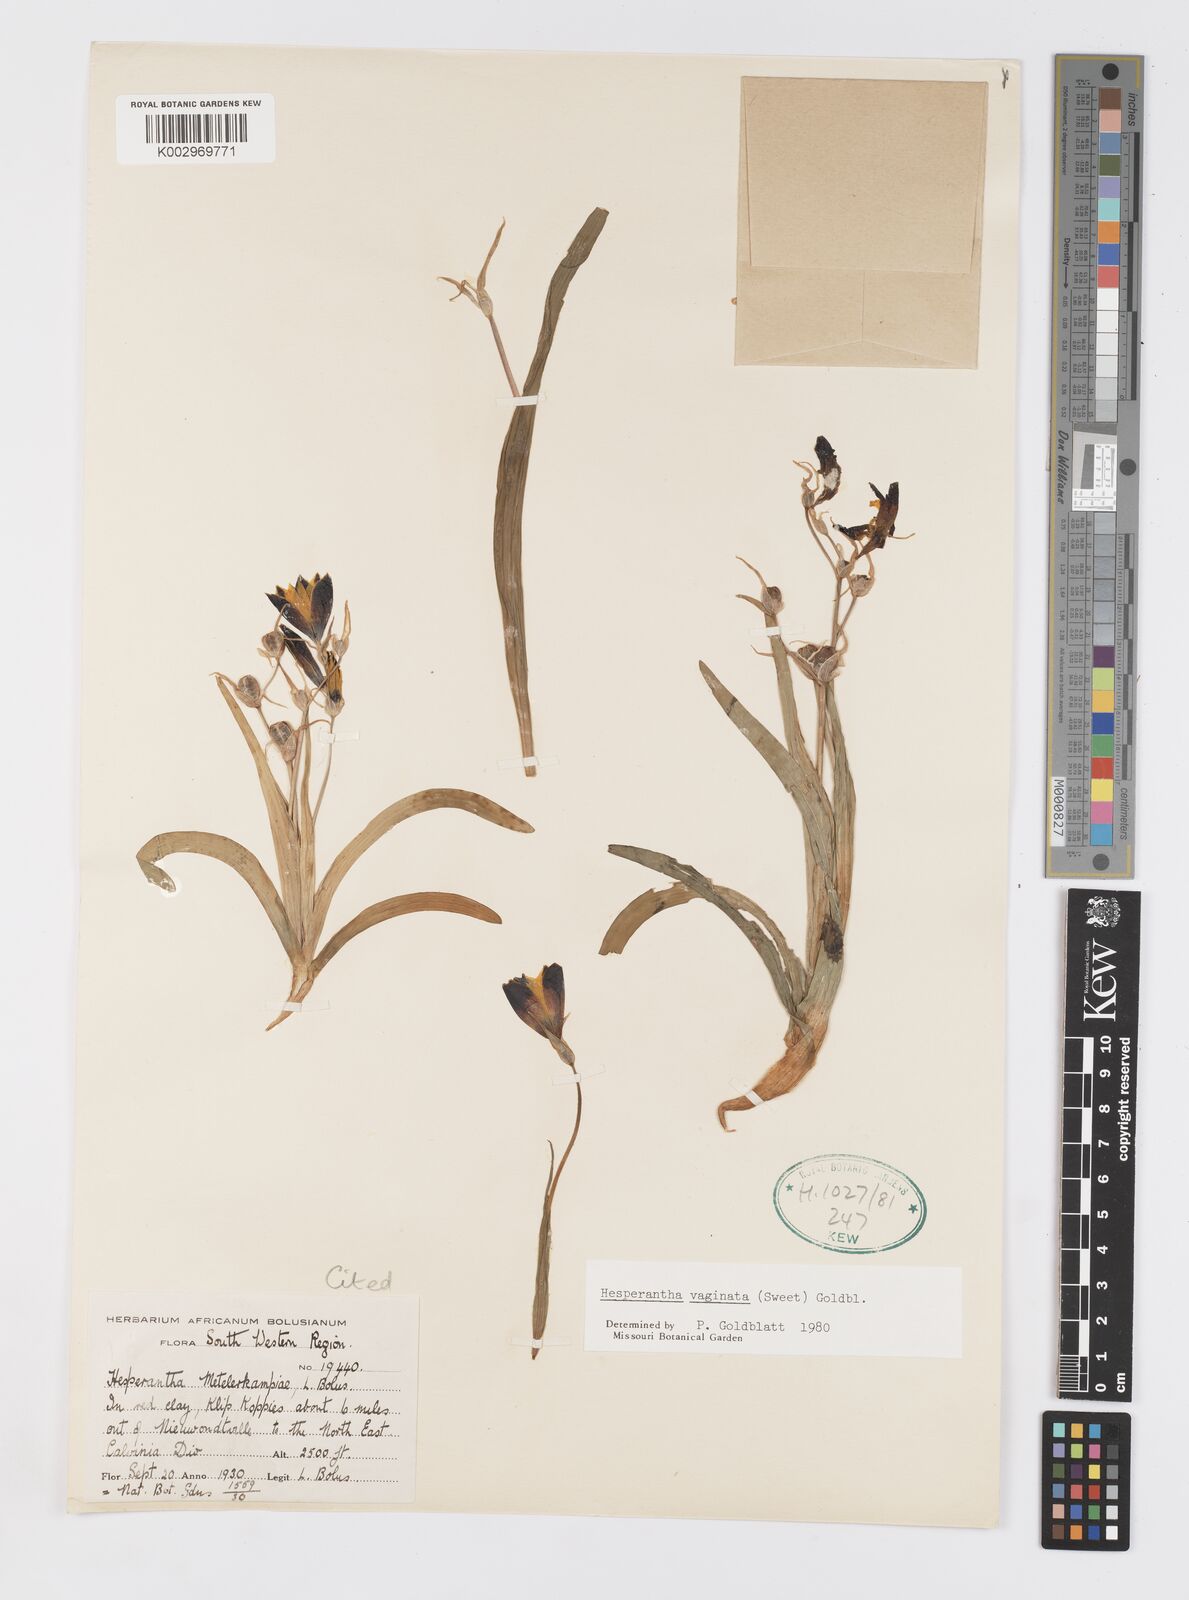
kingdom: Plantae
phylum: Tracheophyta
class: Liliopsida
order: Asparagales
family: Iridaceae
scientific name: Iridaceae
